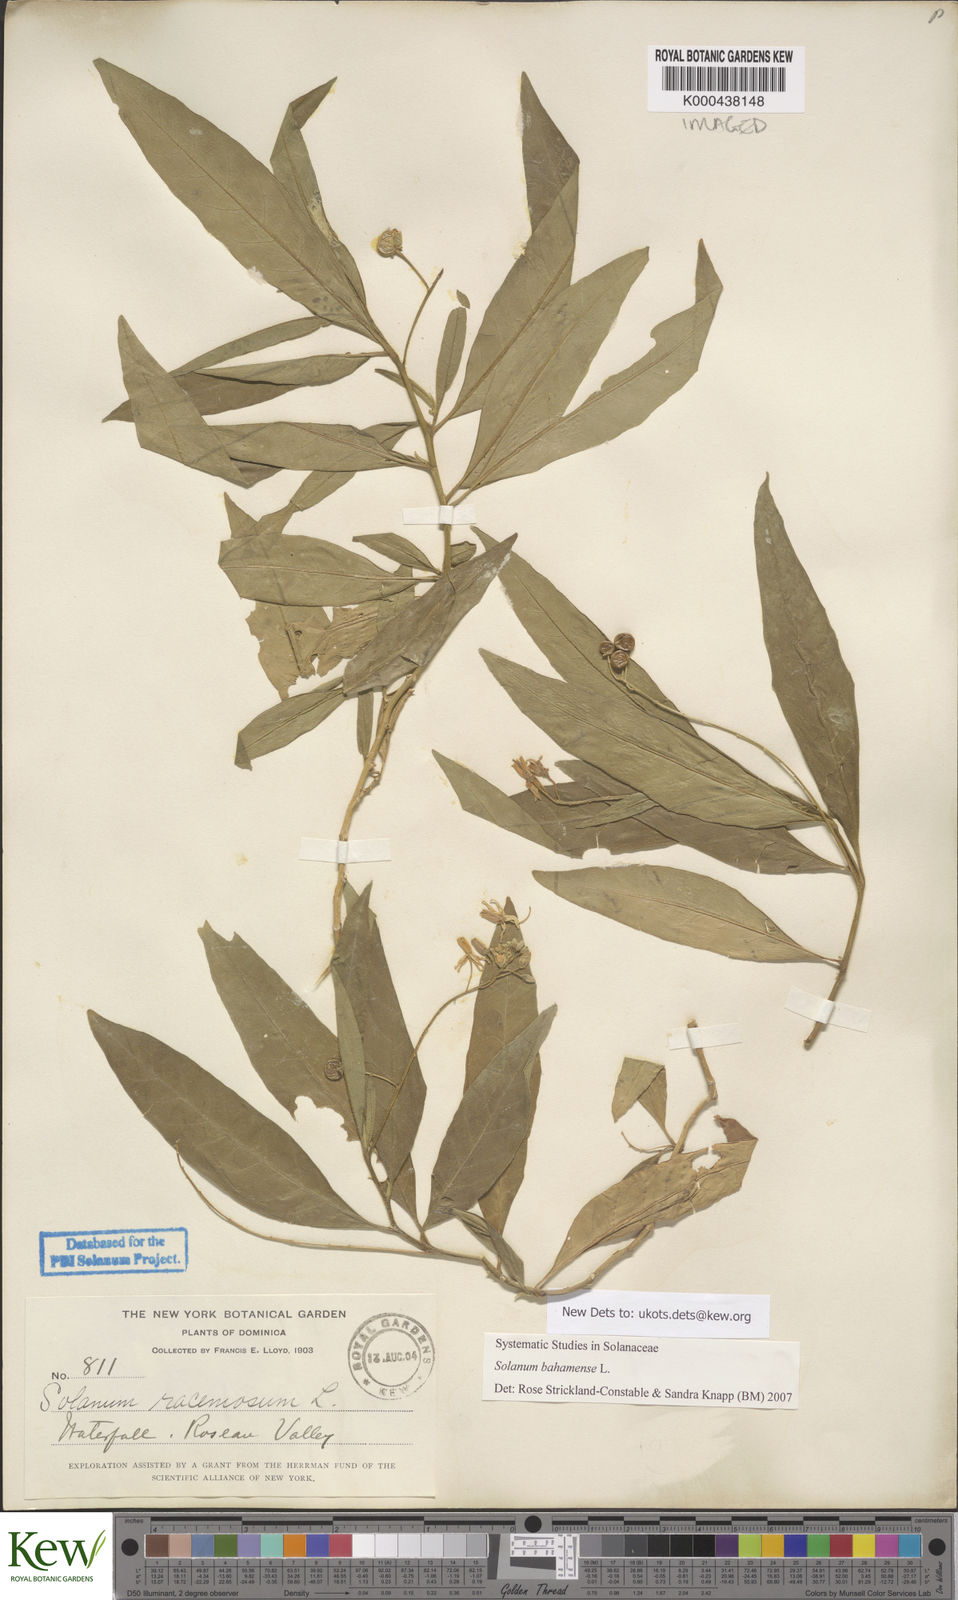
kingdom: Plantae
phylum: Tracheophyta
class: Magnoliopsida
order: Solanales
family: Solanaceae
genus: Solanum
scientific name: Solanum bahamense
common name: Canker-berry
